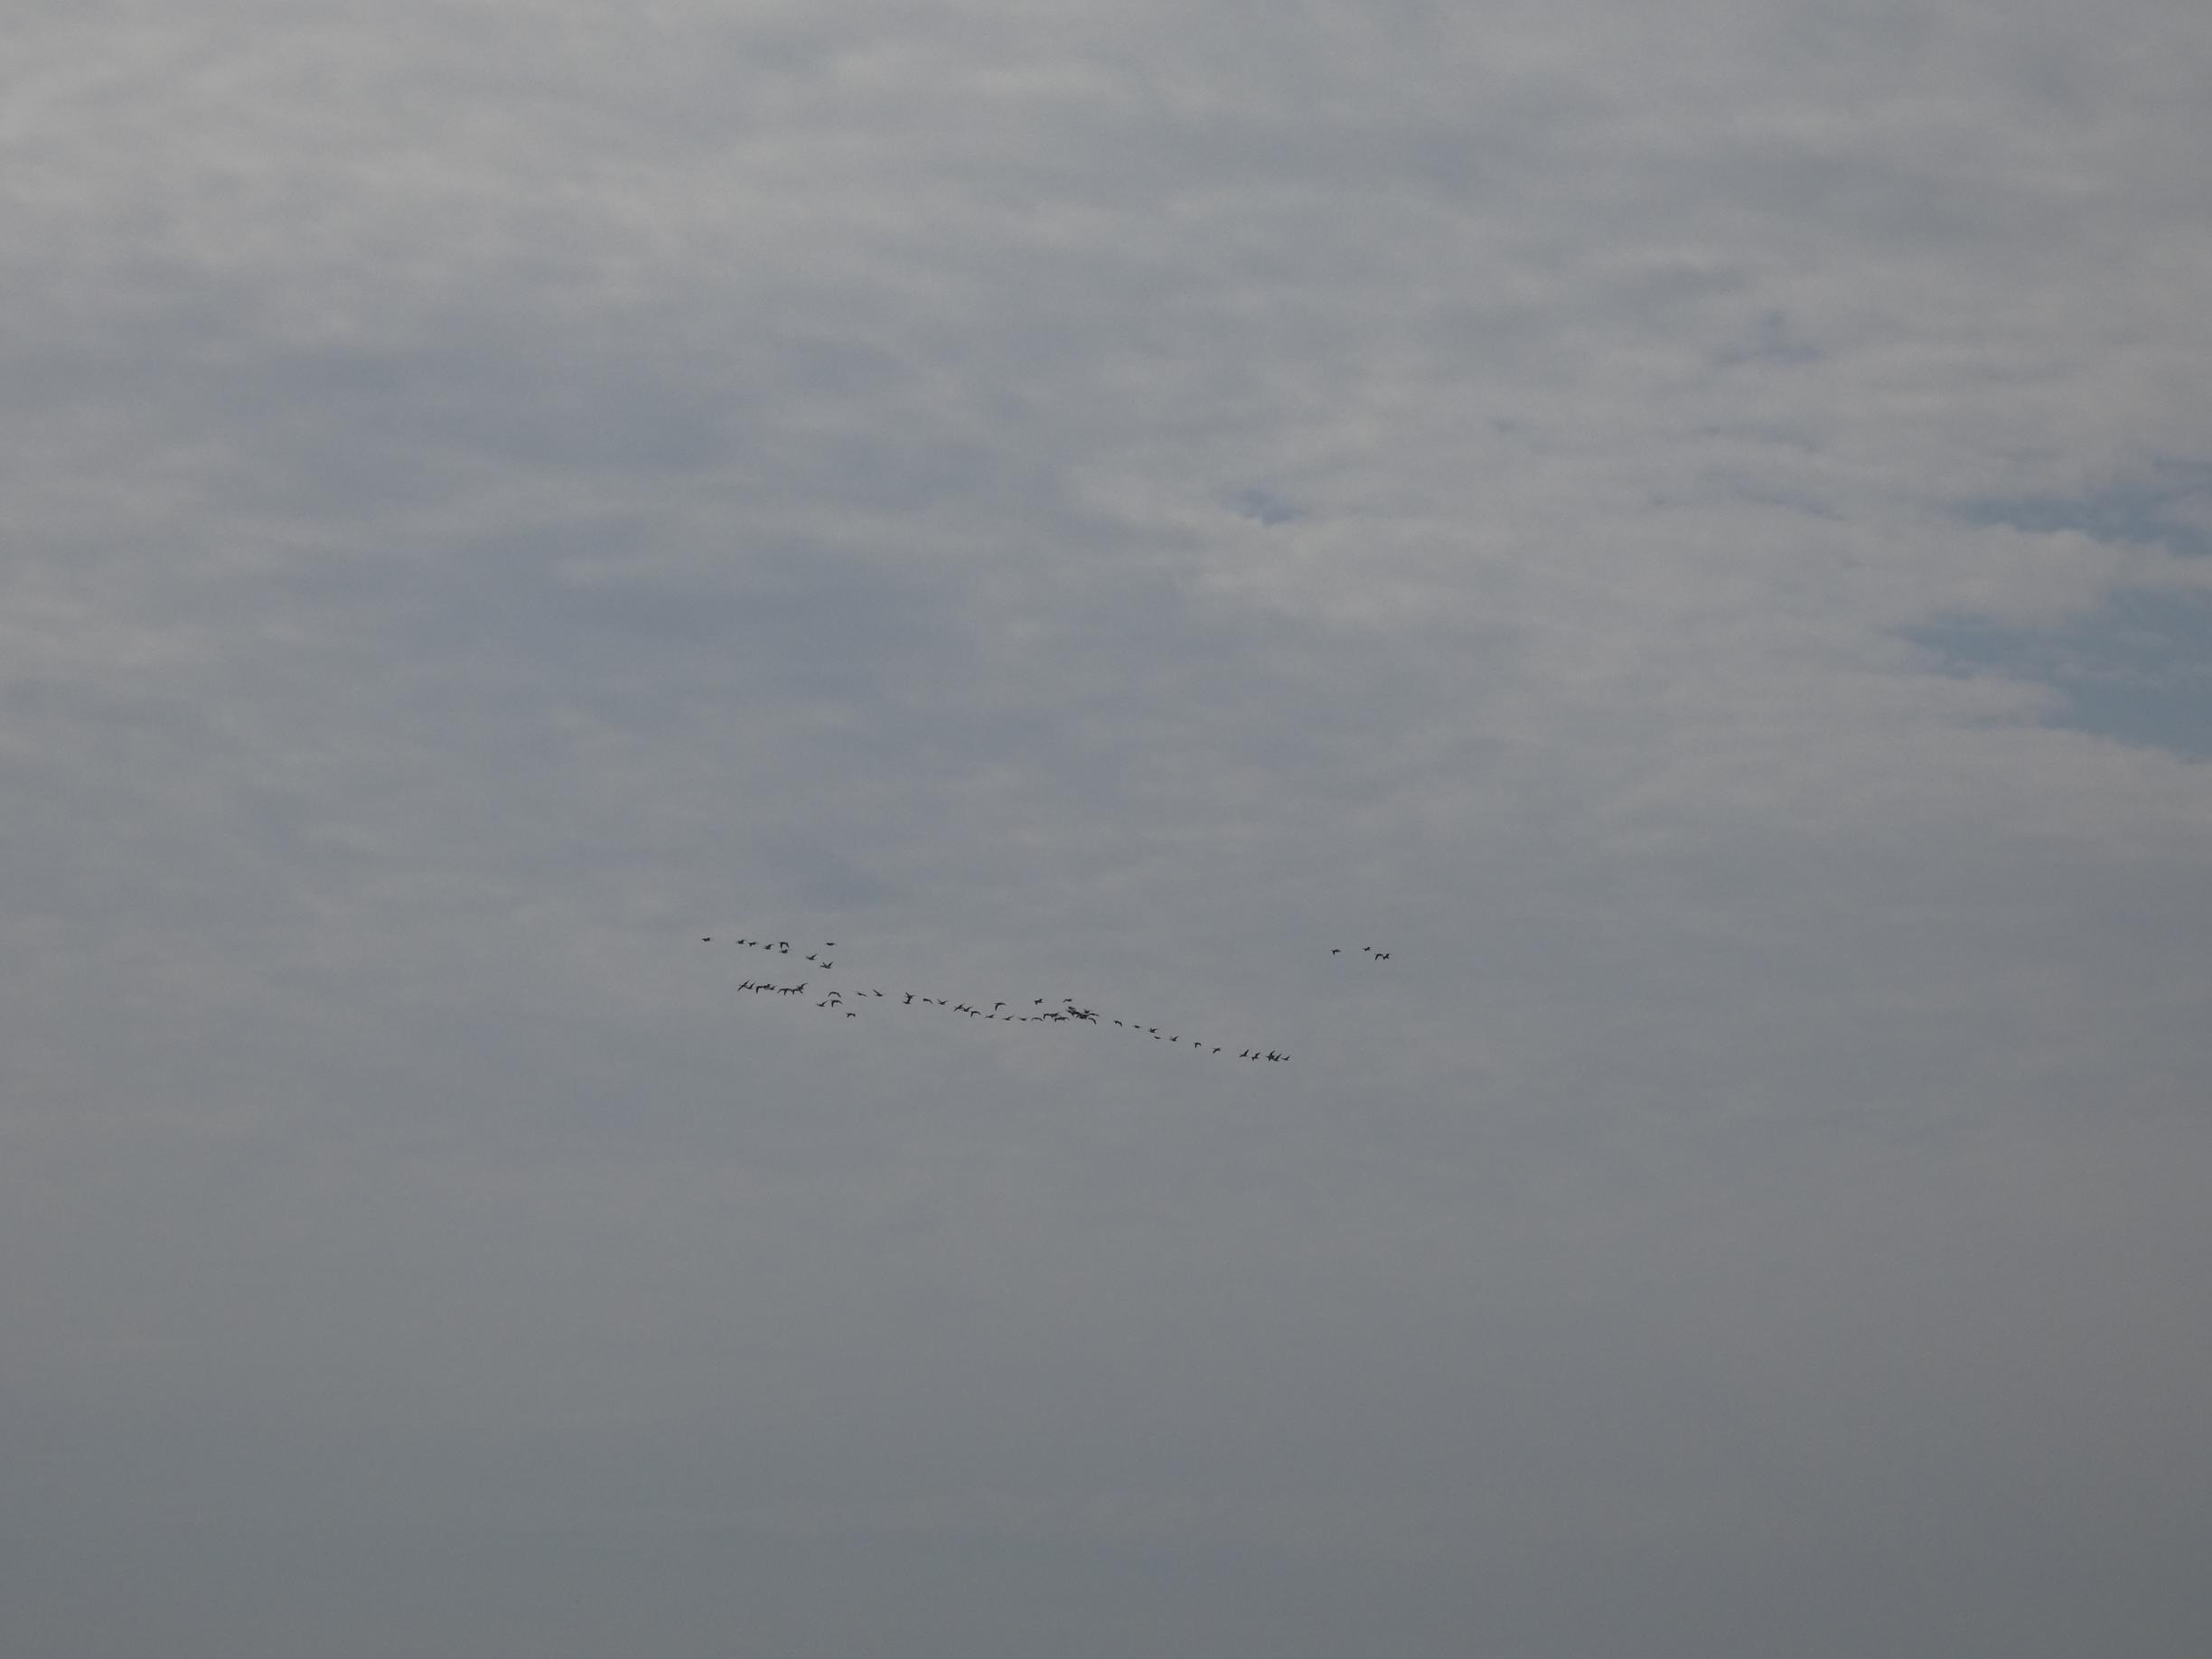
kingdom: Animalia
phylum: Chordata
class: Aves
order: Anseriformes
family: Anatidae
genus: Branta
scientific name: Branta leucopsis
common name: Bramgås
